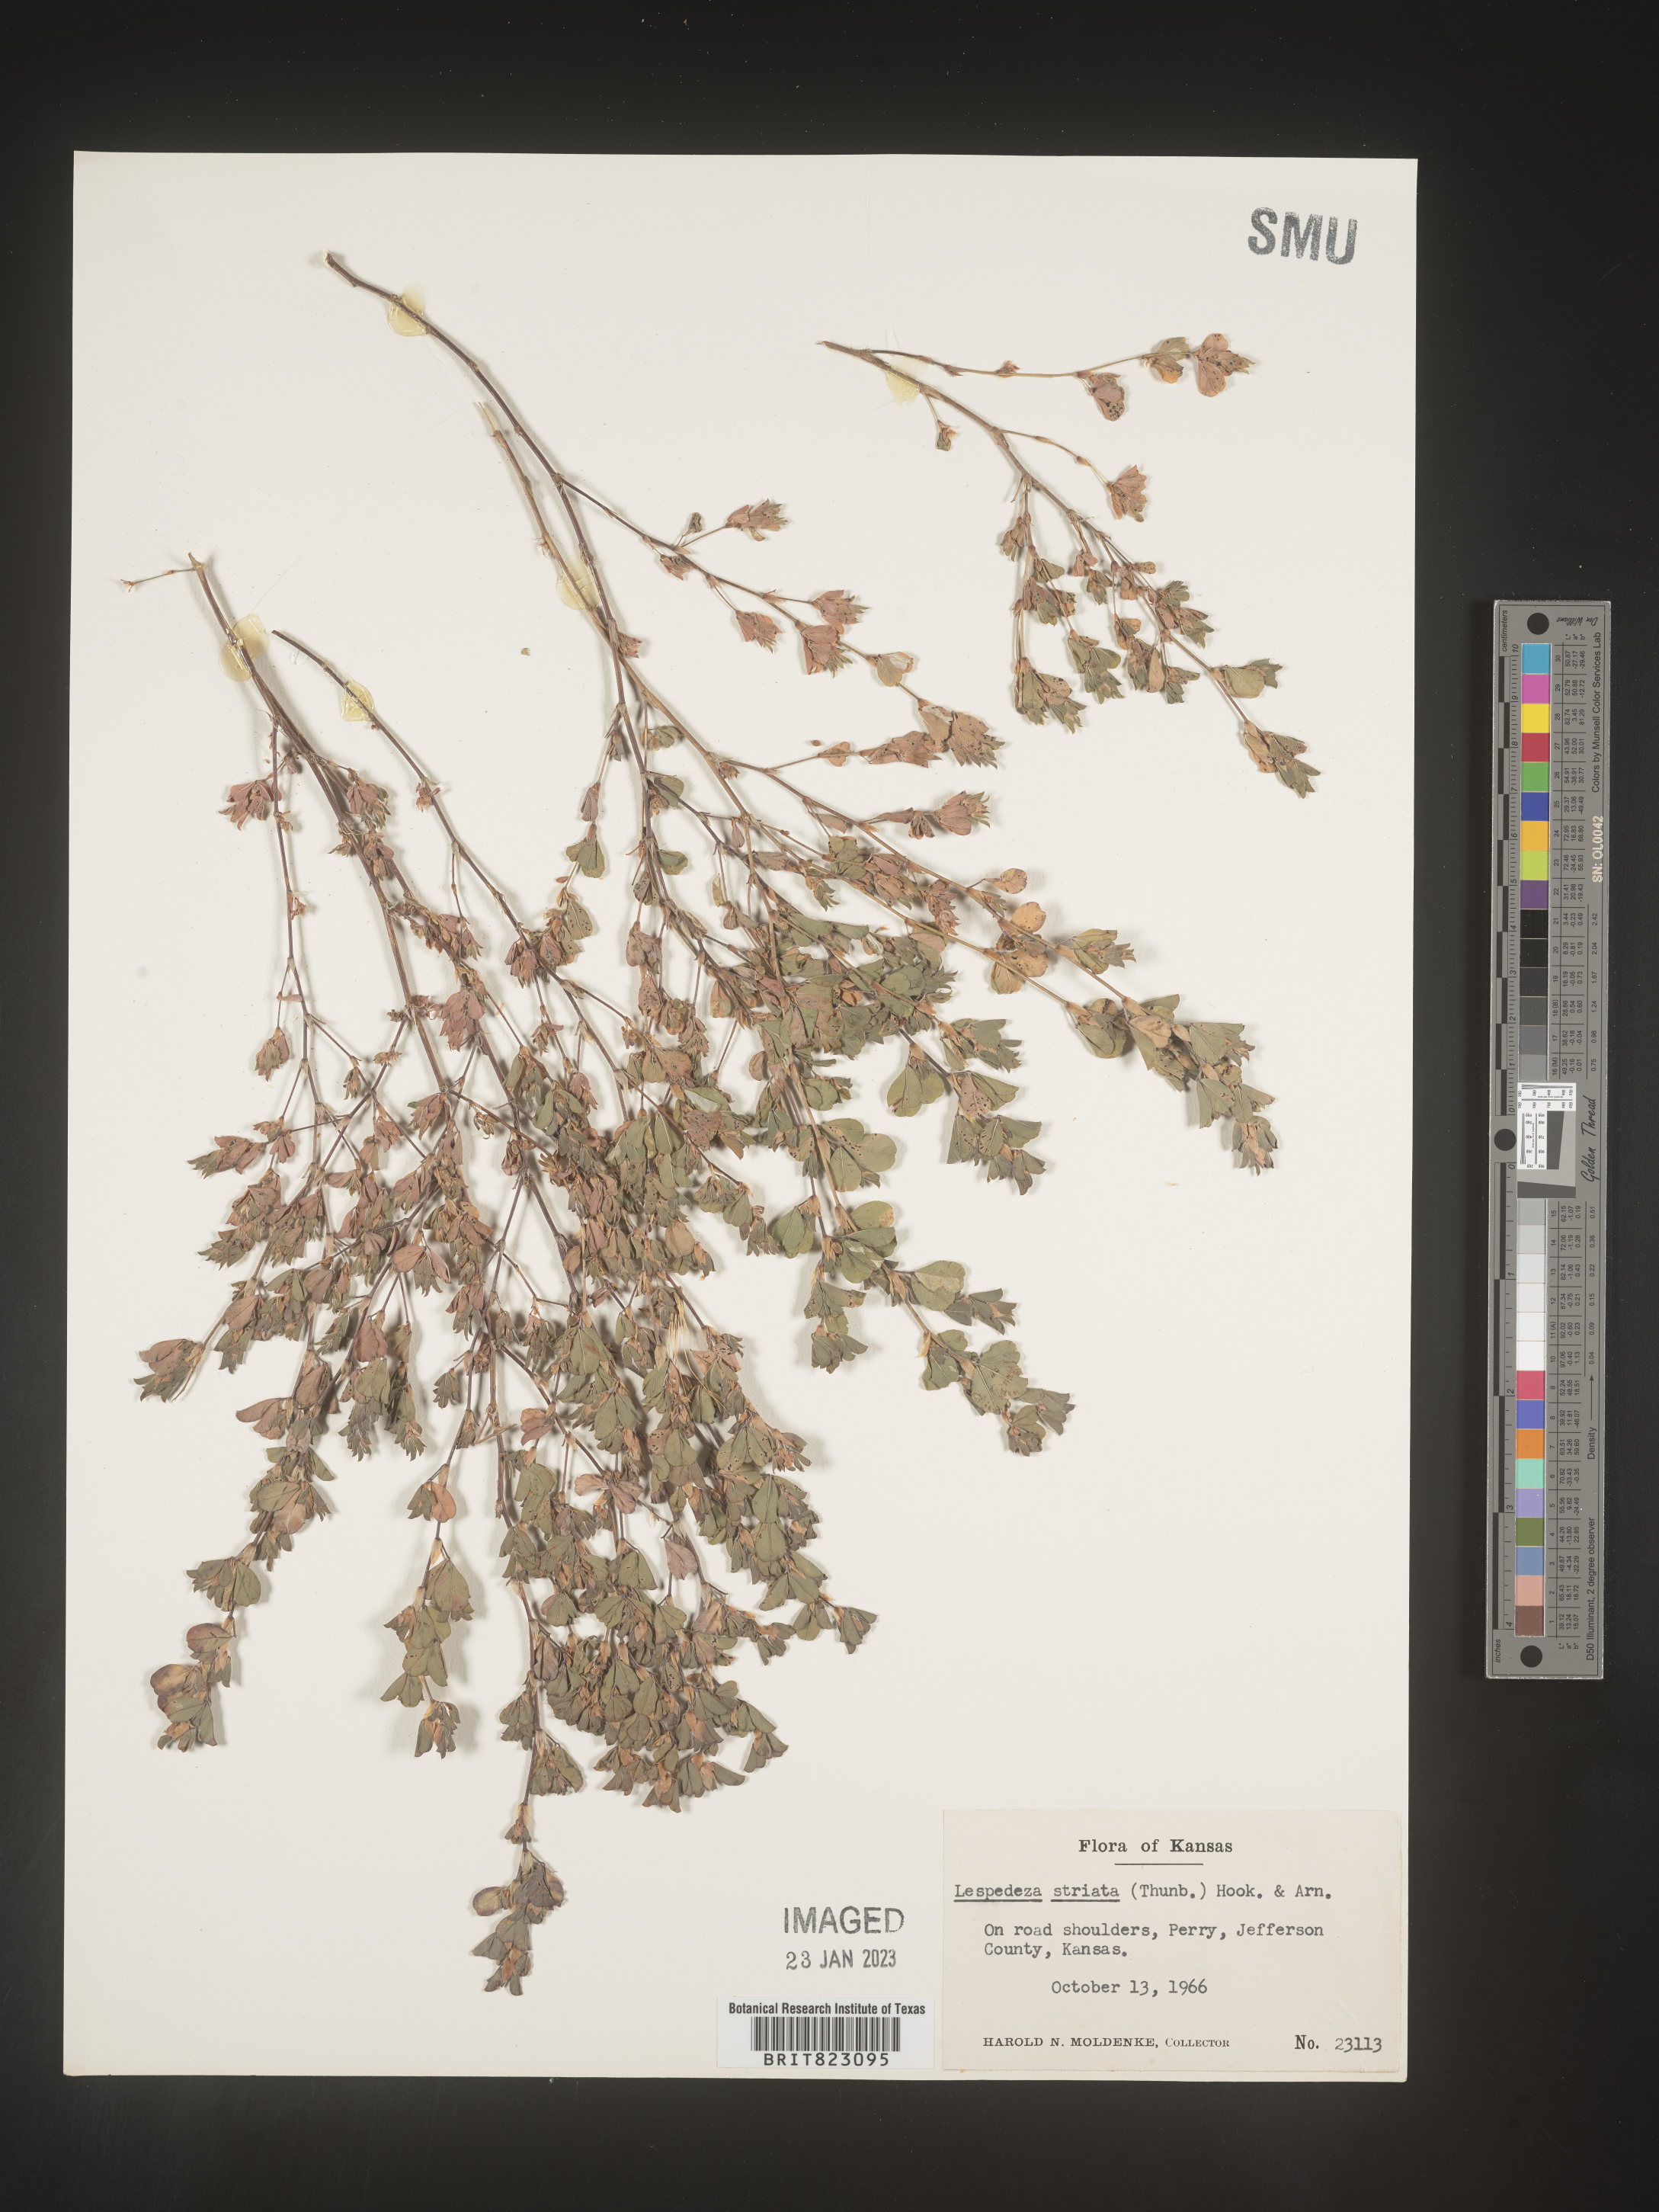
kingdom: Plantae
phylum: Tracheophyta
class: Magnoliopsida
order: Fabales
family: Fabaceae
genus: Kummerowia
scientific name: Kummerowia striata
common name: Japanese clover
